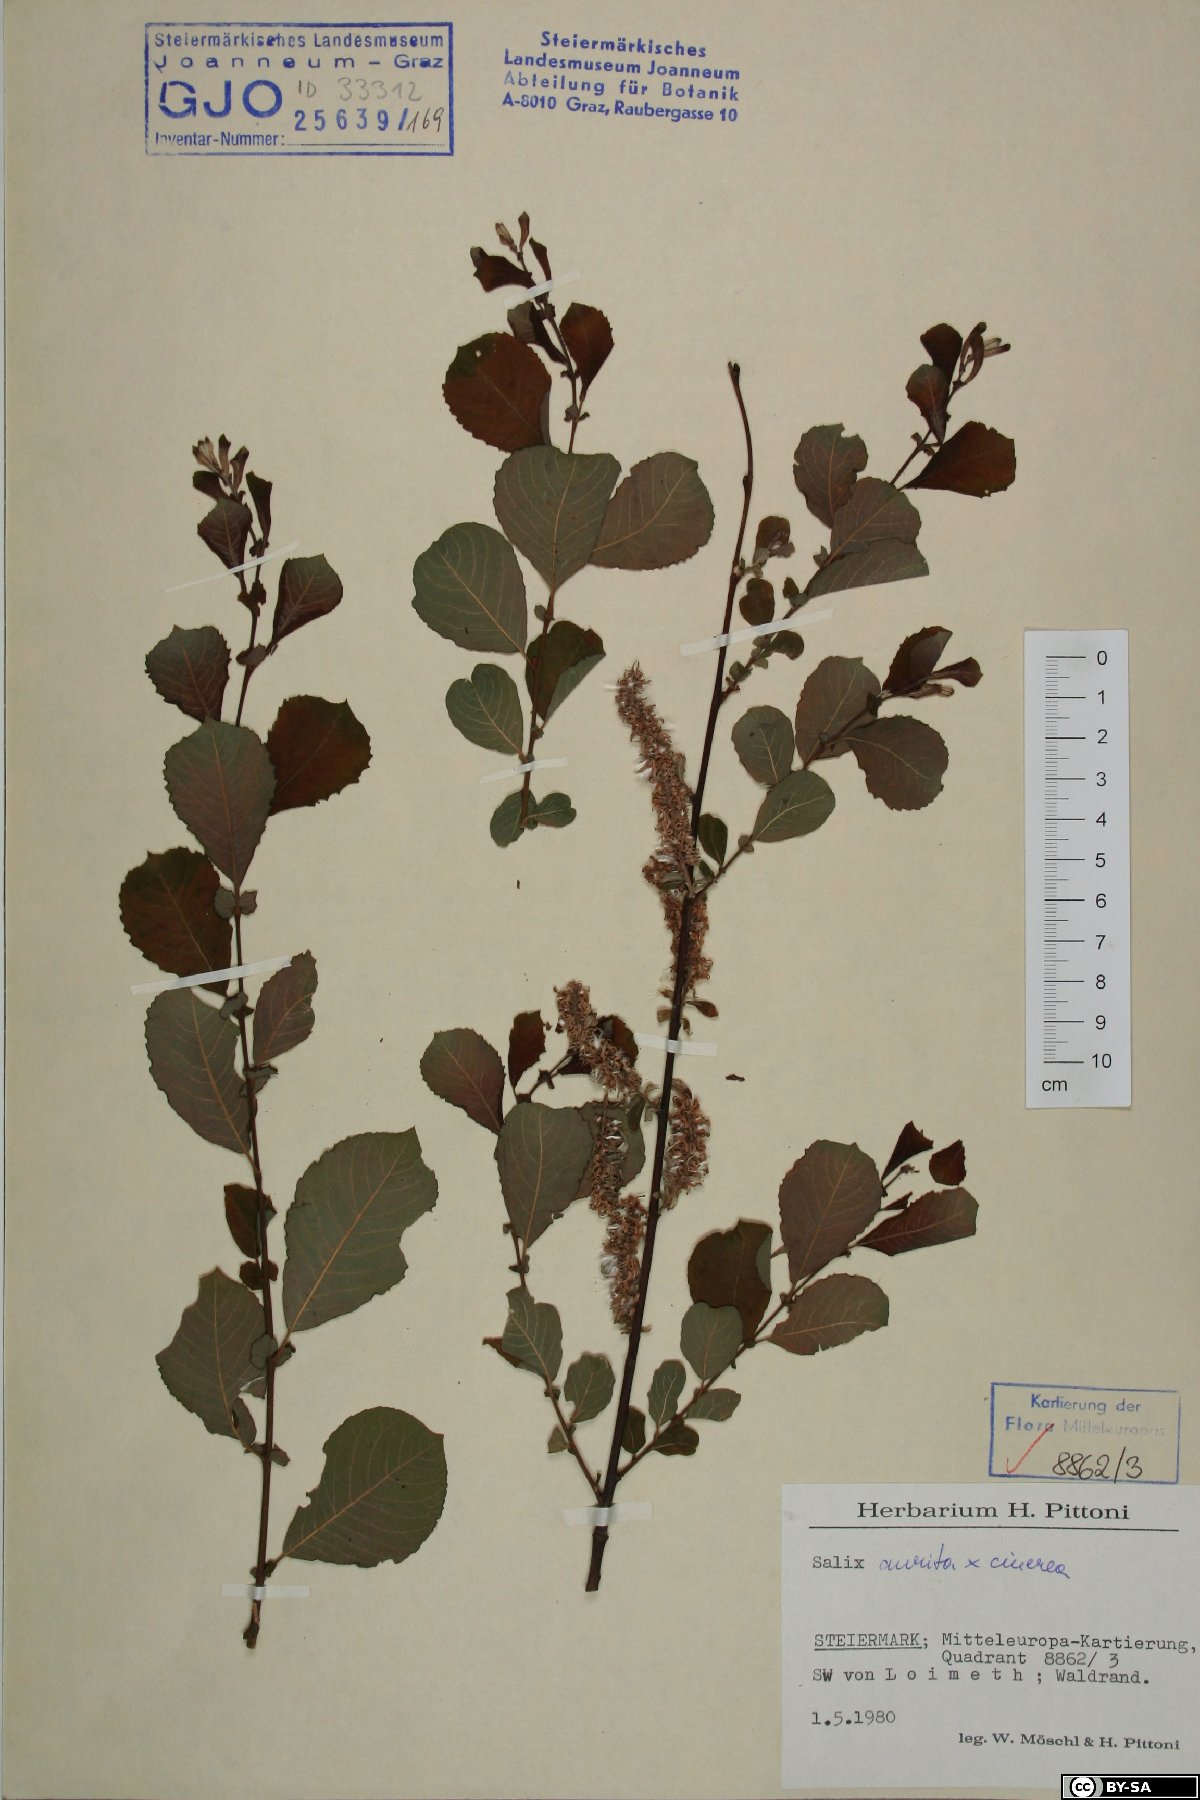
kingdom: Plantae
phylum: Tracheophyta
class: Magnoliopsida
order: Malpighiales
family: Salicaceae
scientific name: Salicaceae
